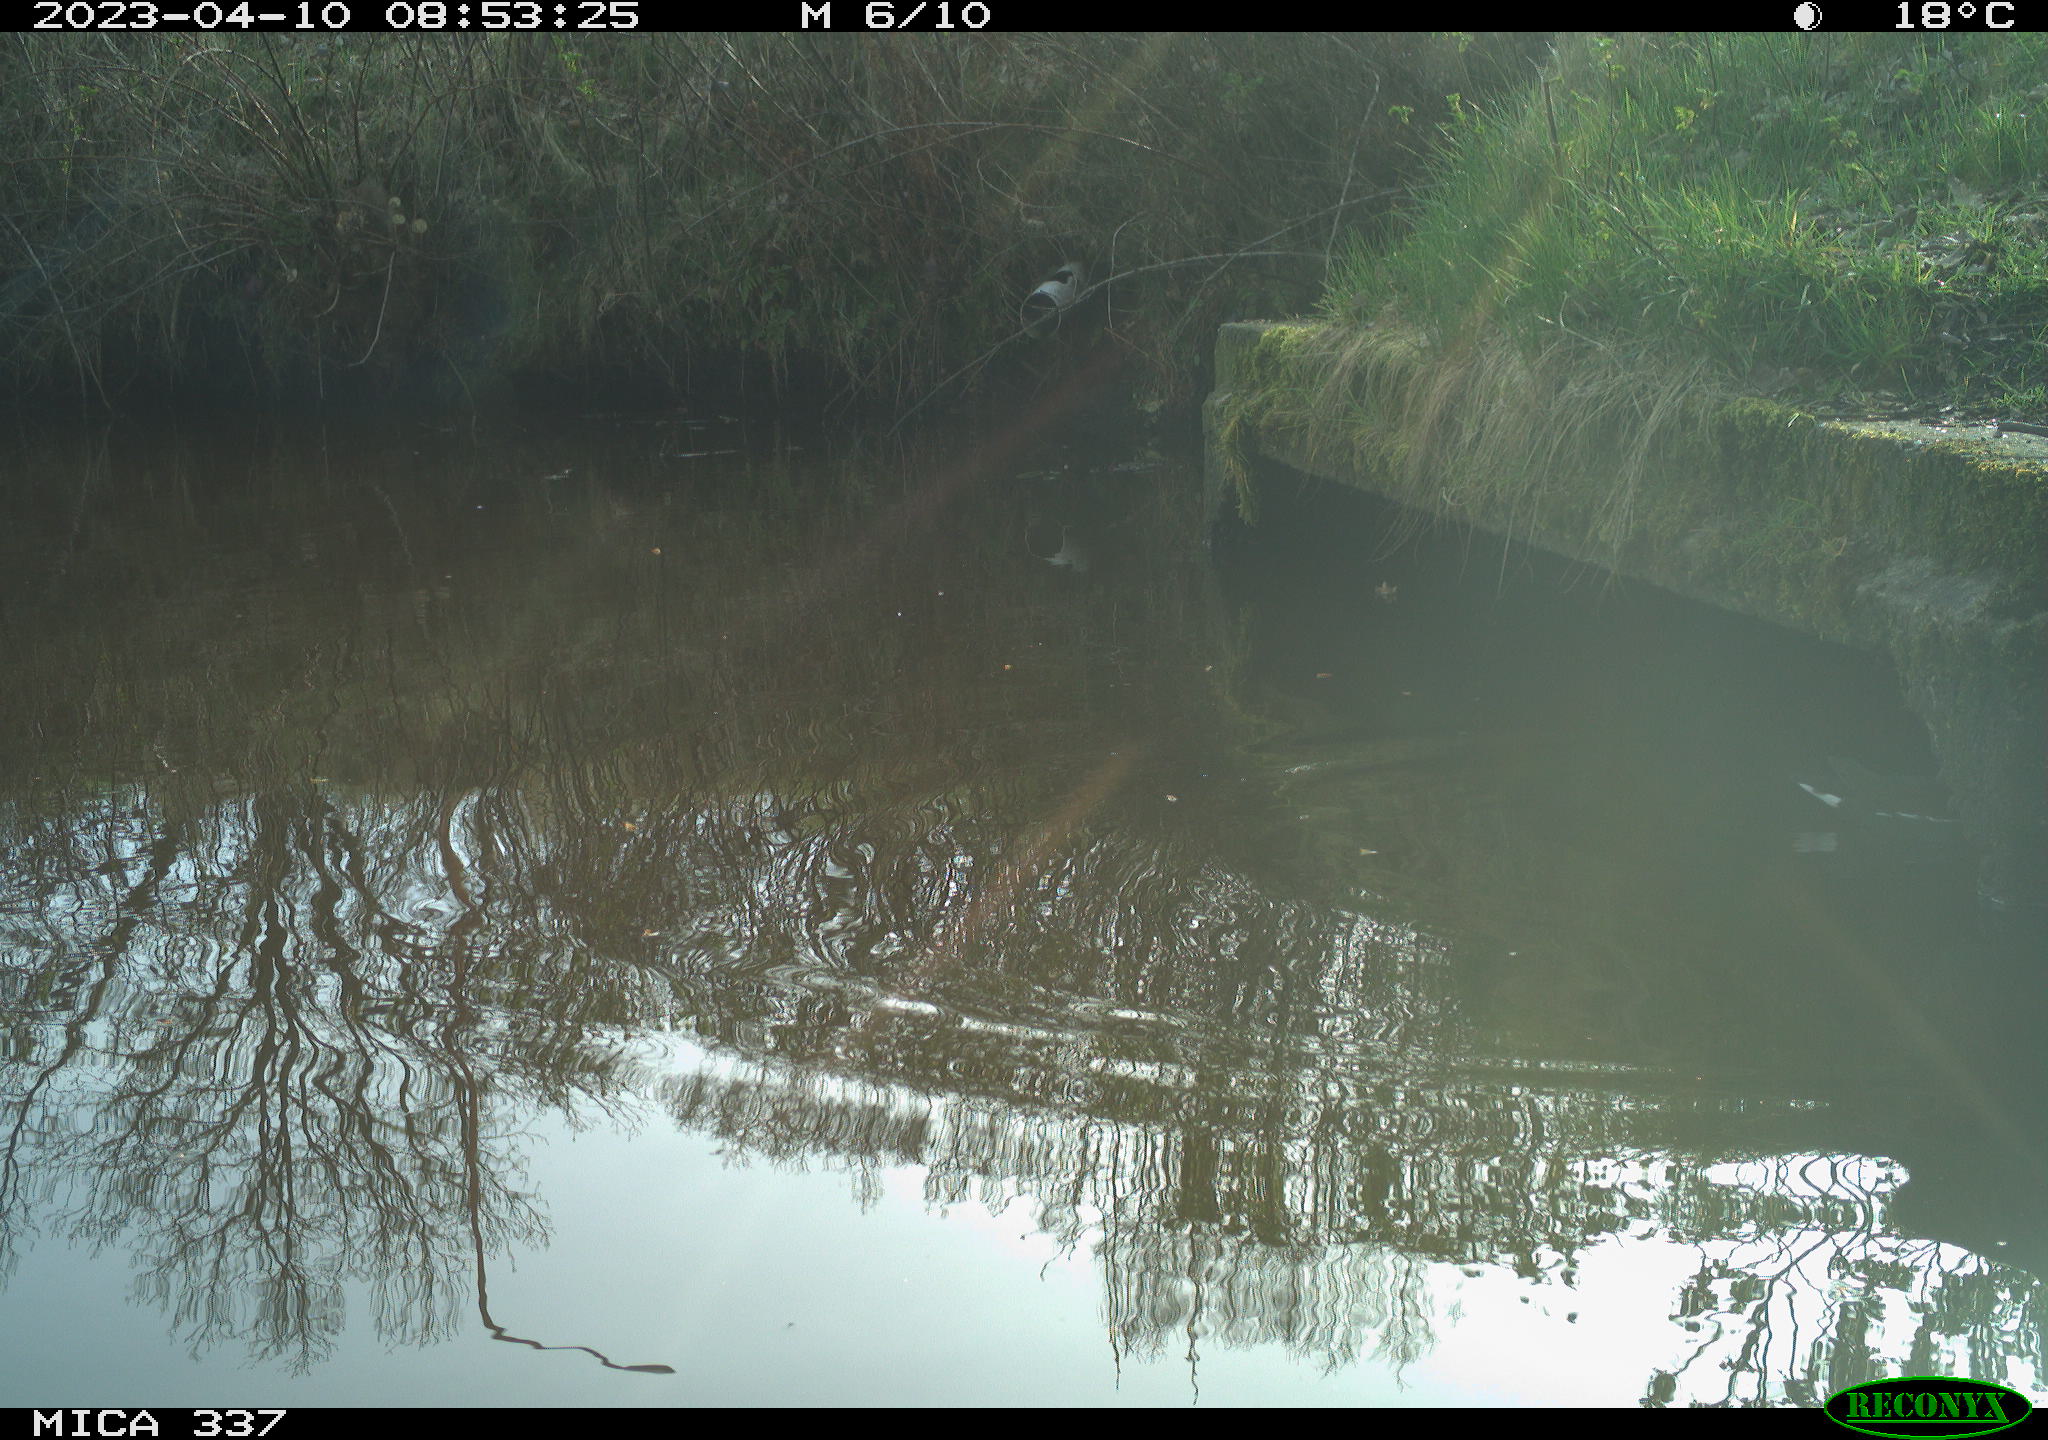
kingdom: Animalia
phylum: Chordata
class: Aves
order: Gruiformes
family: Rallidae
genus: Gallinula
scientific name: Gallinula chloropus
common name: Common moorhen
